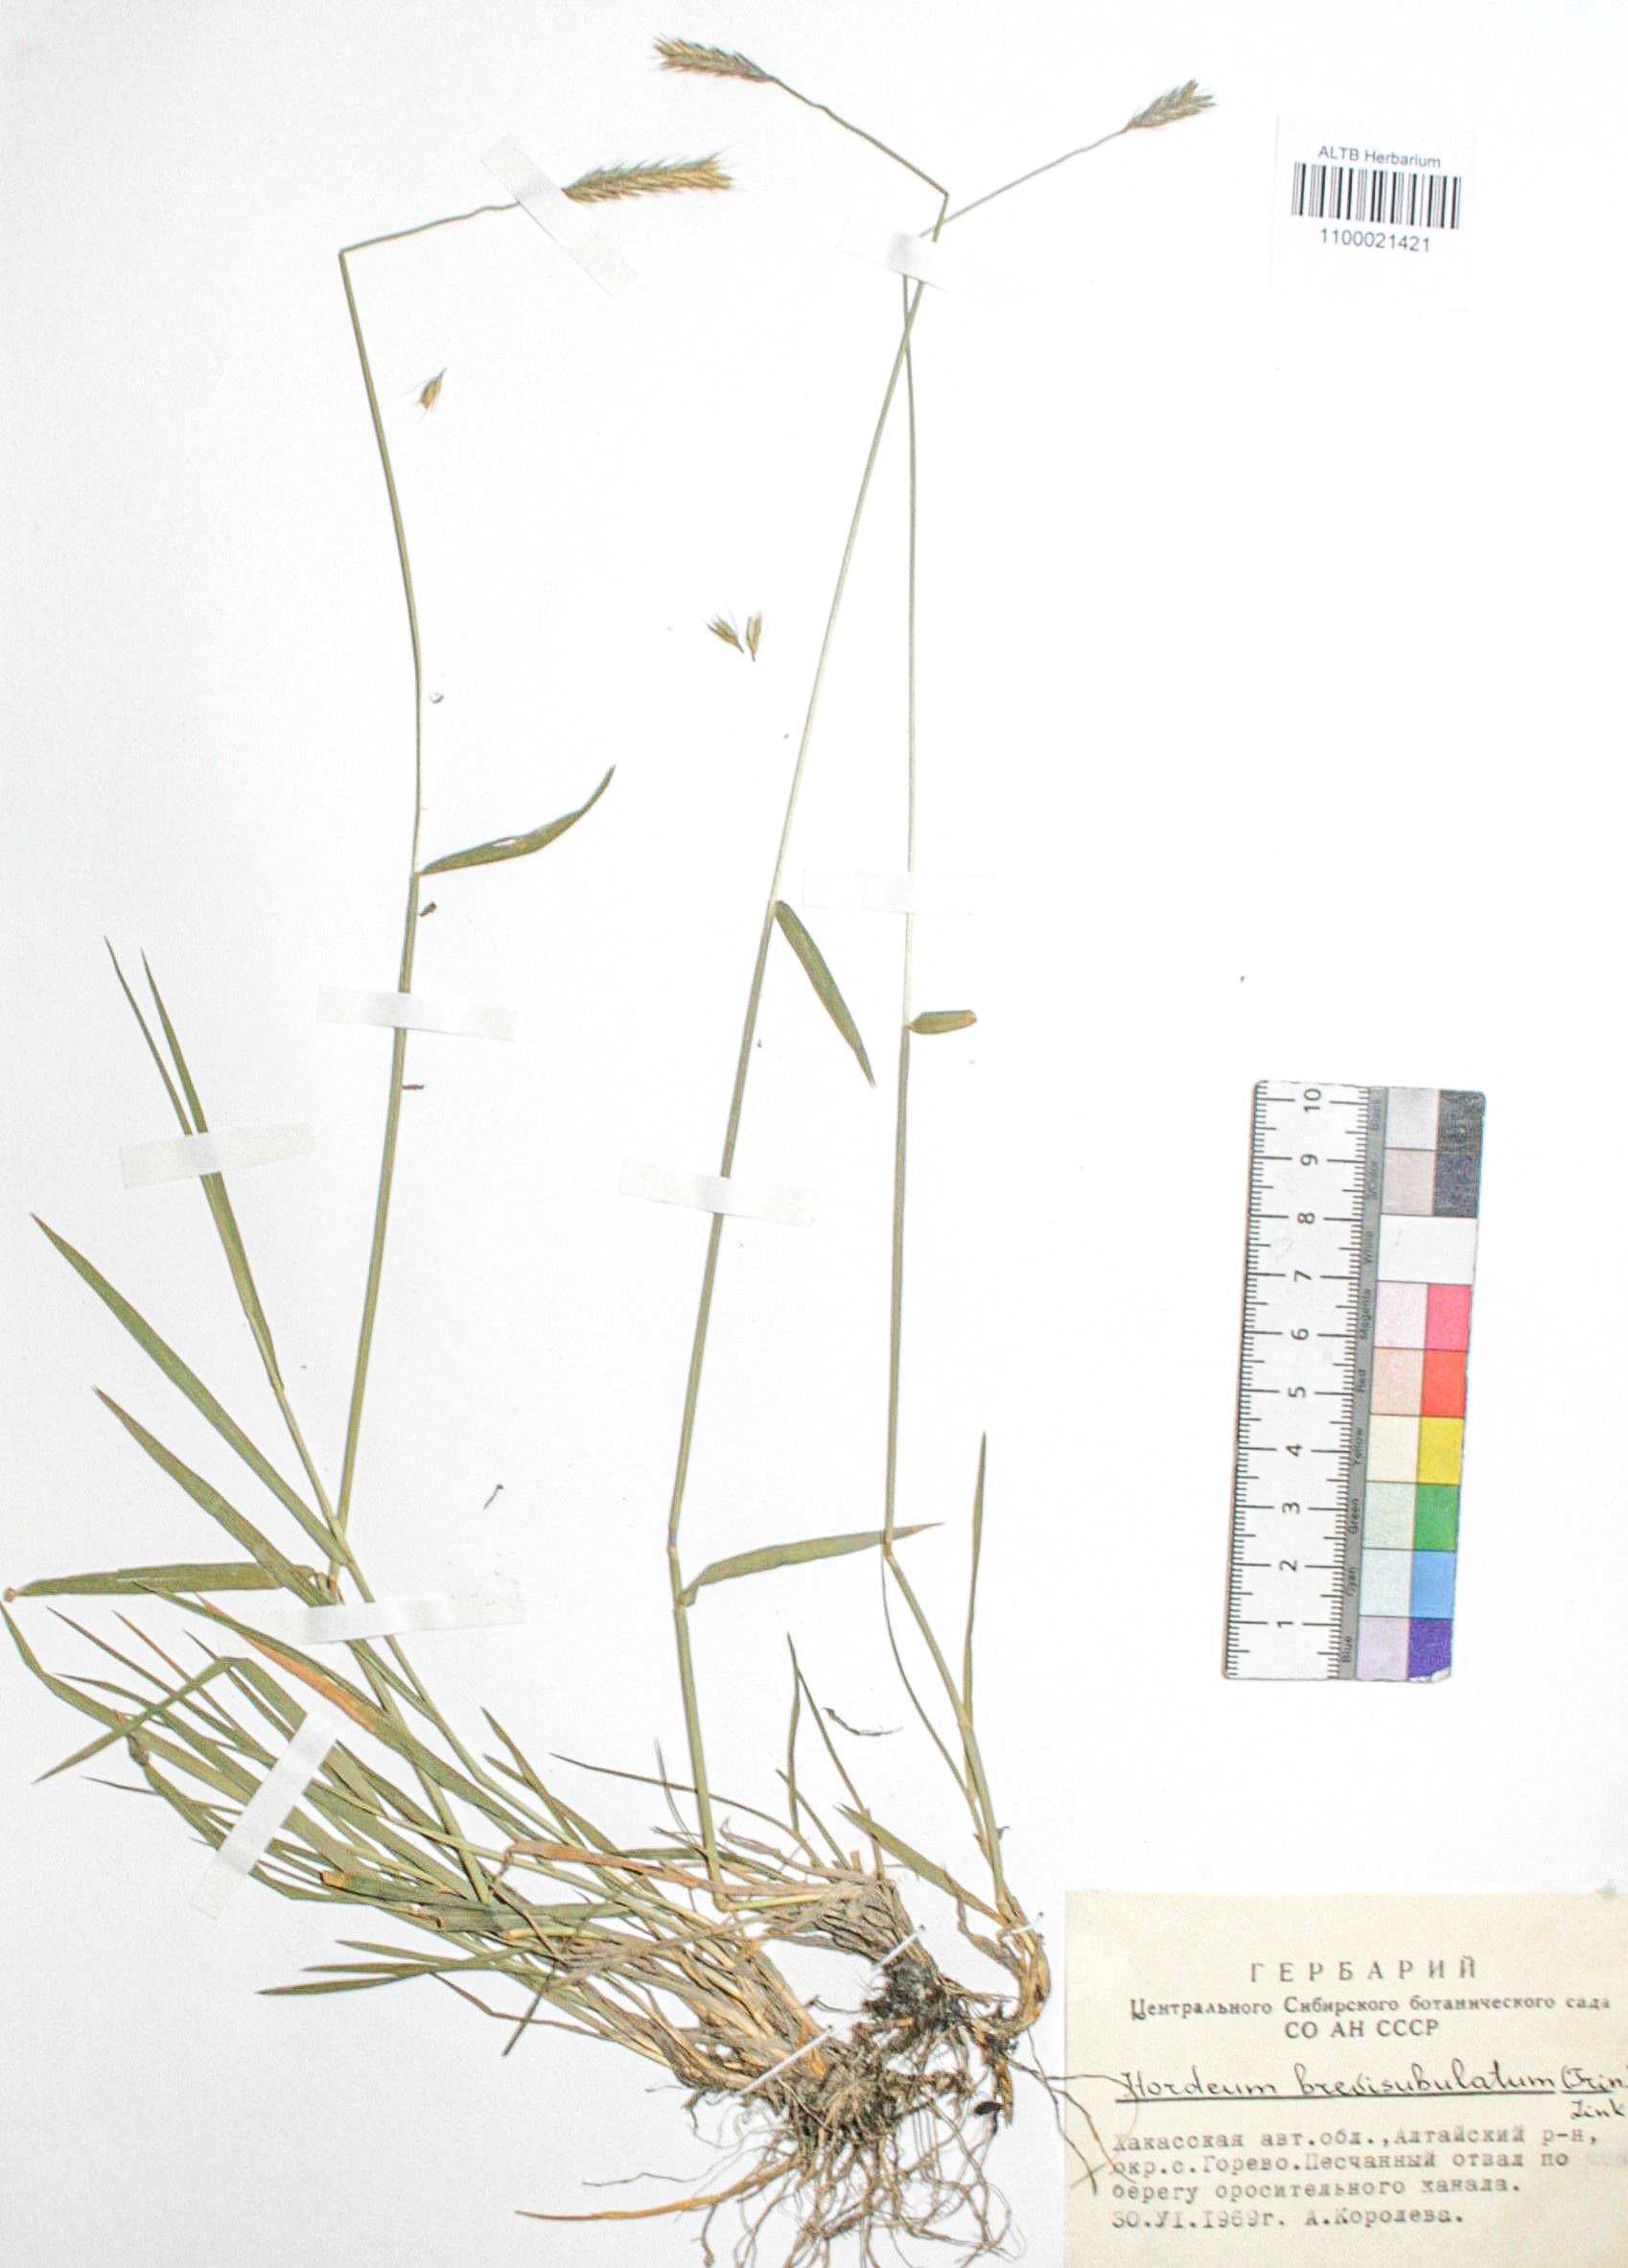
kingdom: Plantae
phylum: Tracheophyta
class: Liliopsida
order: Poales
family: Poaceae
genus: Hordeum
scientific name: Hordeum brevisubulatum
